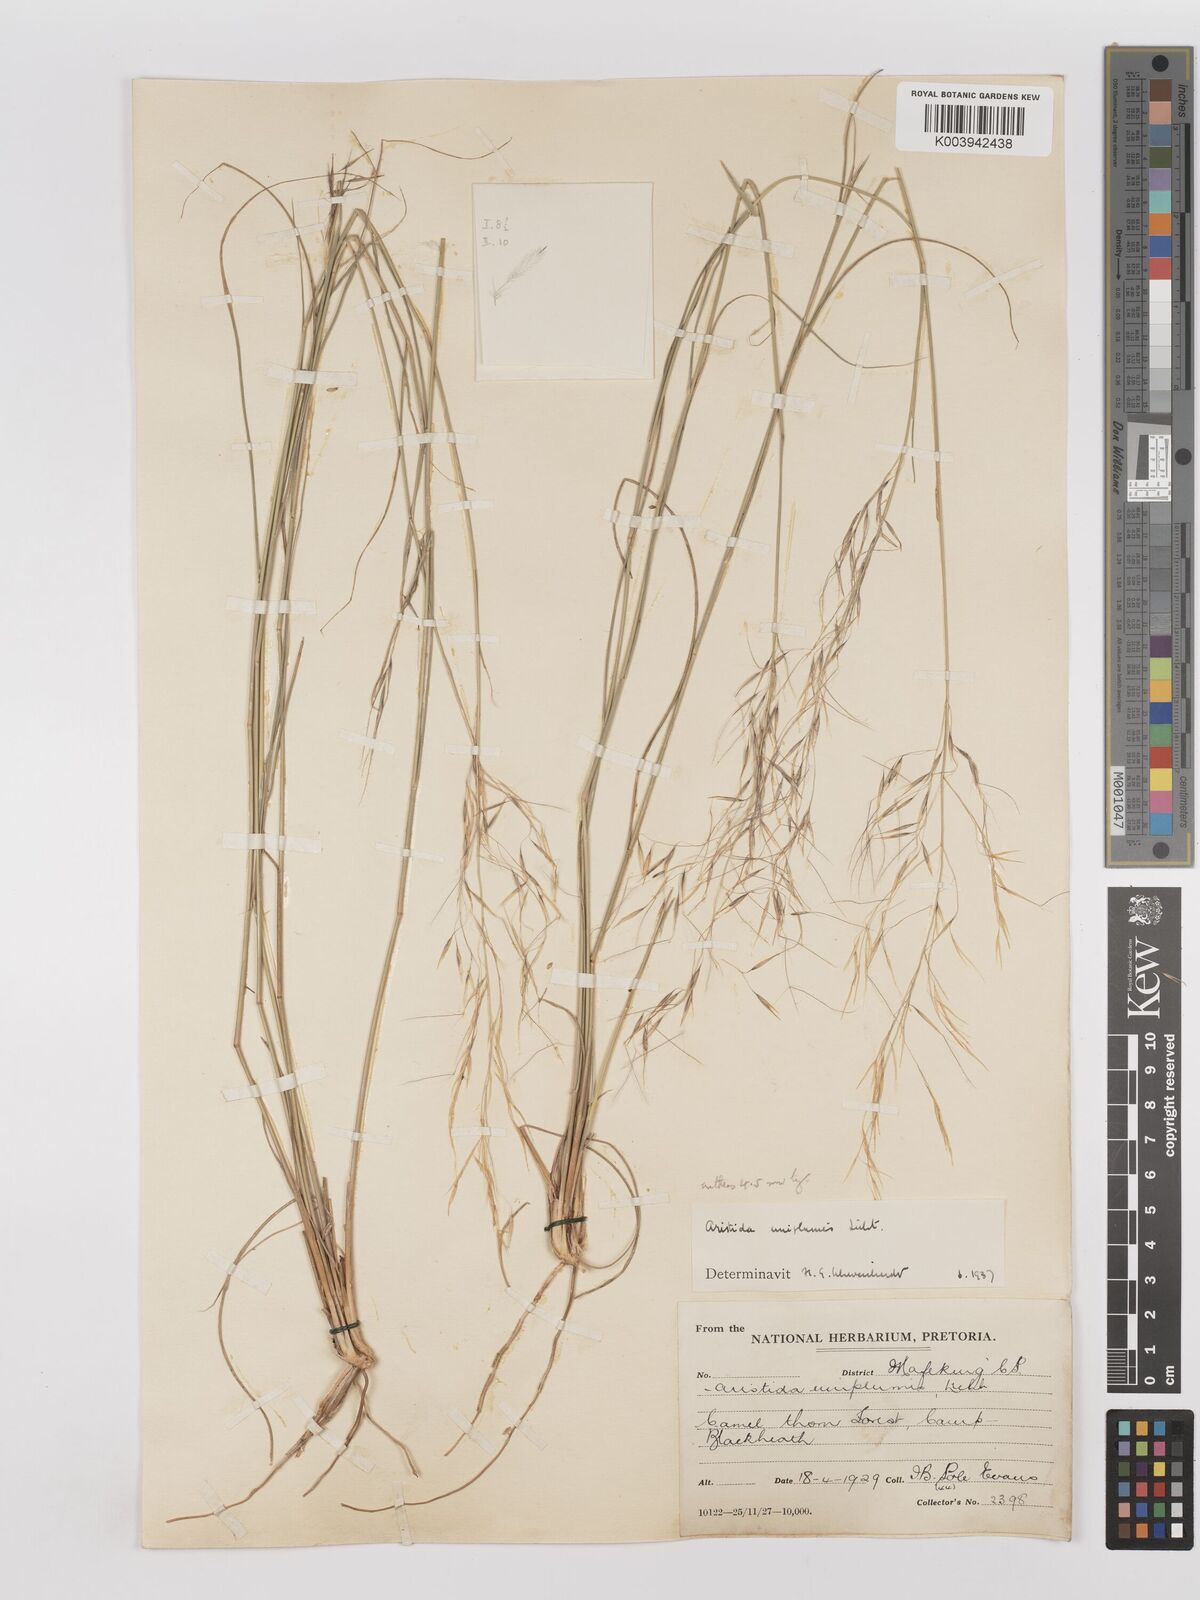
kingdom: Plantae
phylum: Tracheophyta
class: Liliopsida
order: Poales
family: Poaceae
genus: Stipagrostis
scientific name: Stipagrostis uniplumis
